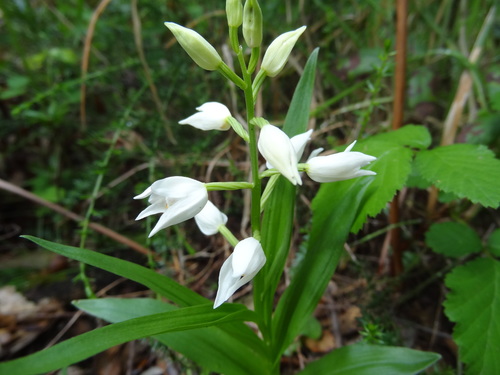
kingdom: Plantae
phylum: Tracheophyta
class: Liliopsida
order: Asparagales
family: Orchidaceae
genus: Cephalanthera
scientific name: Cephalanthera longifolia
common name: Narrow-leaved helleborine
